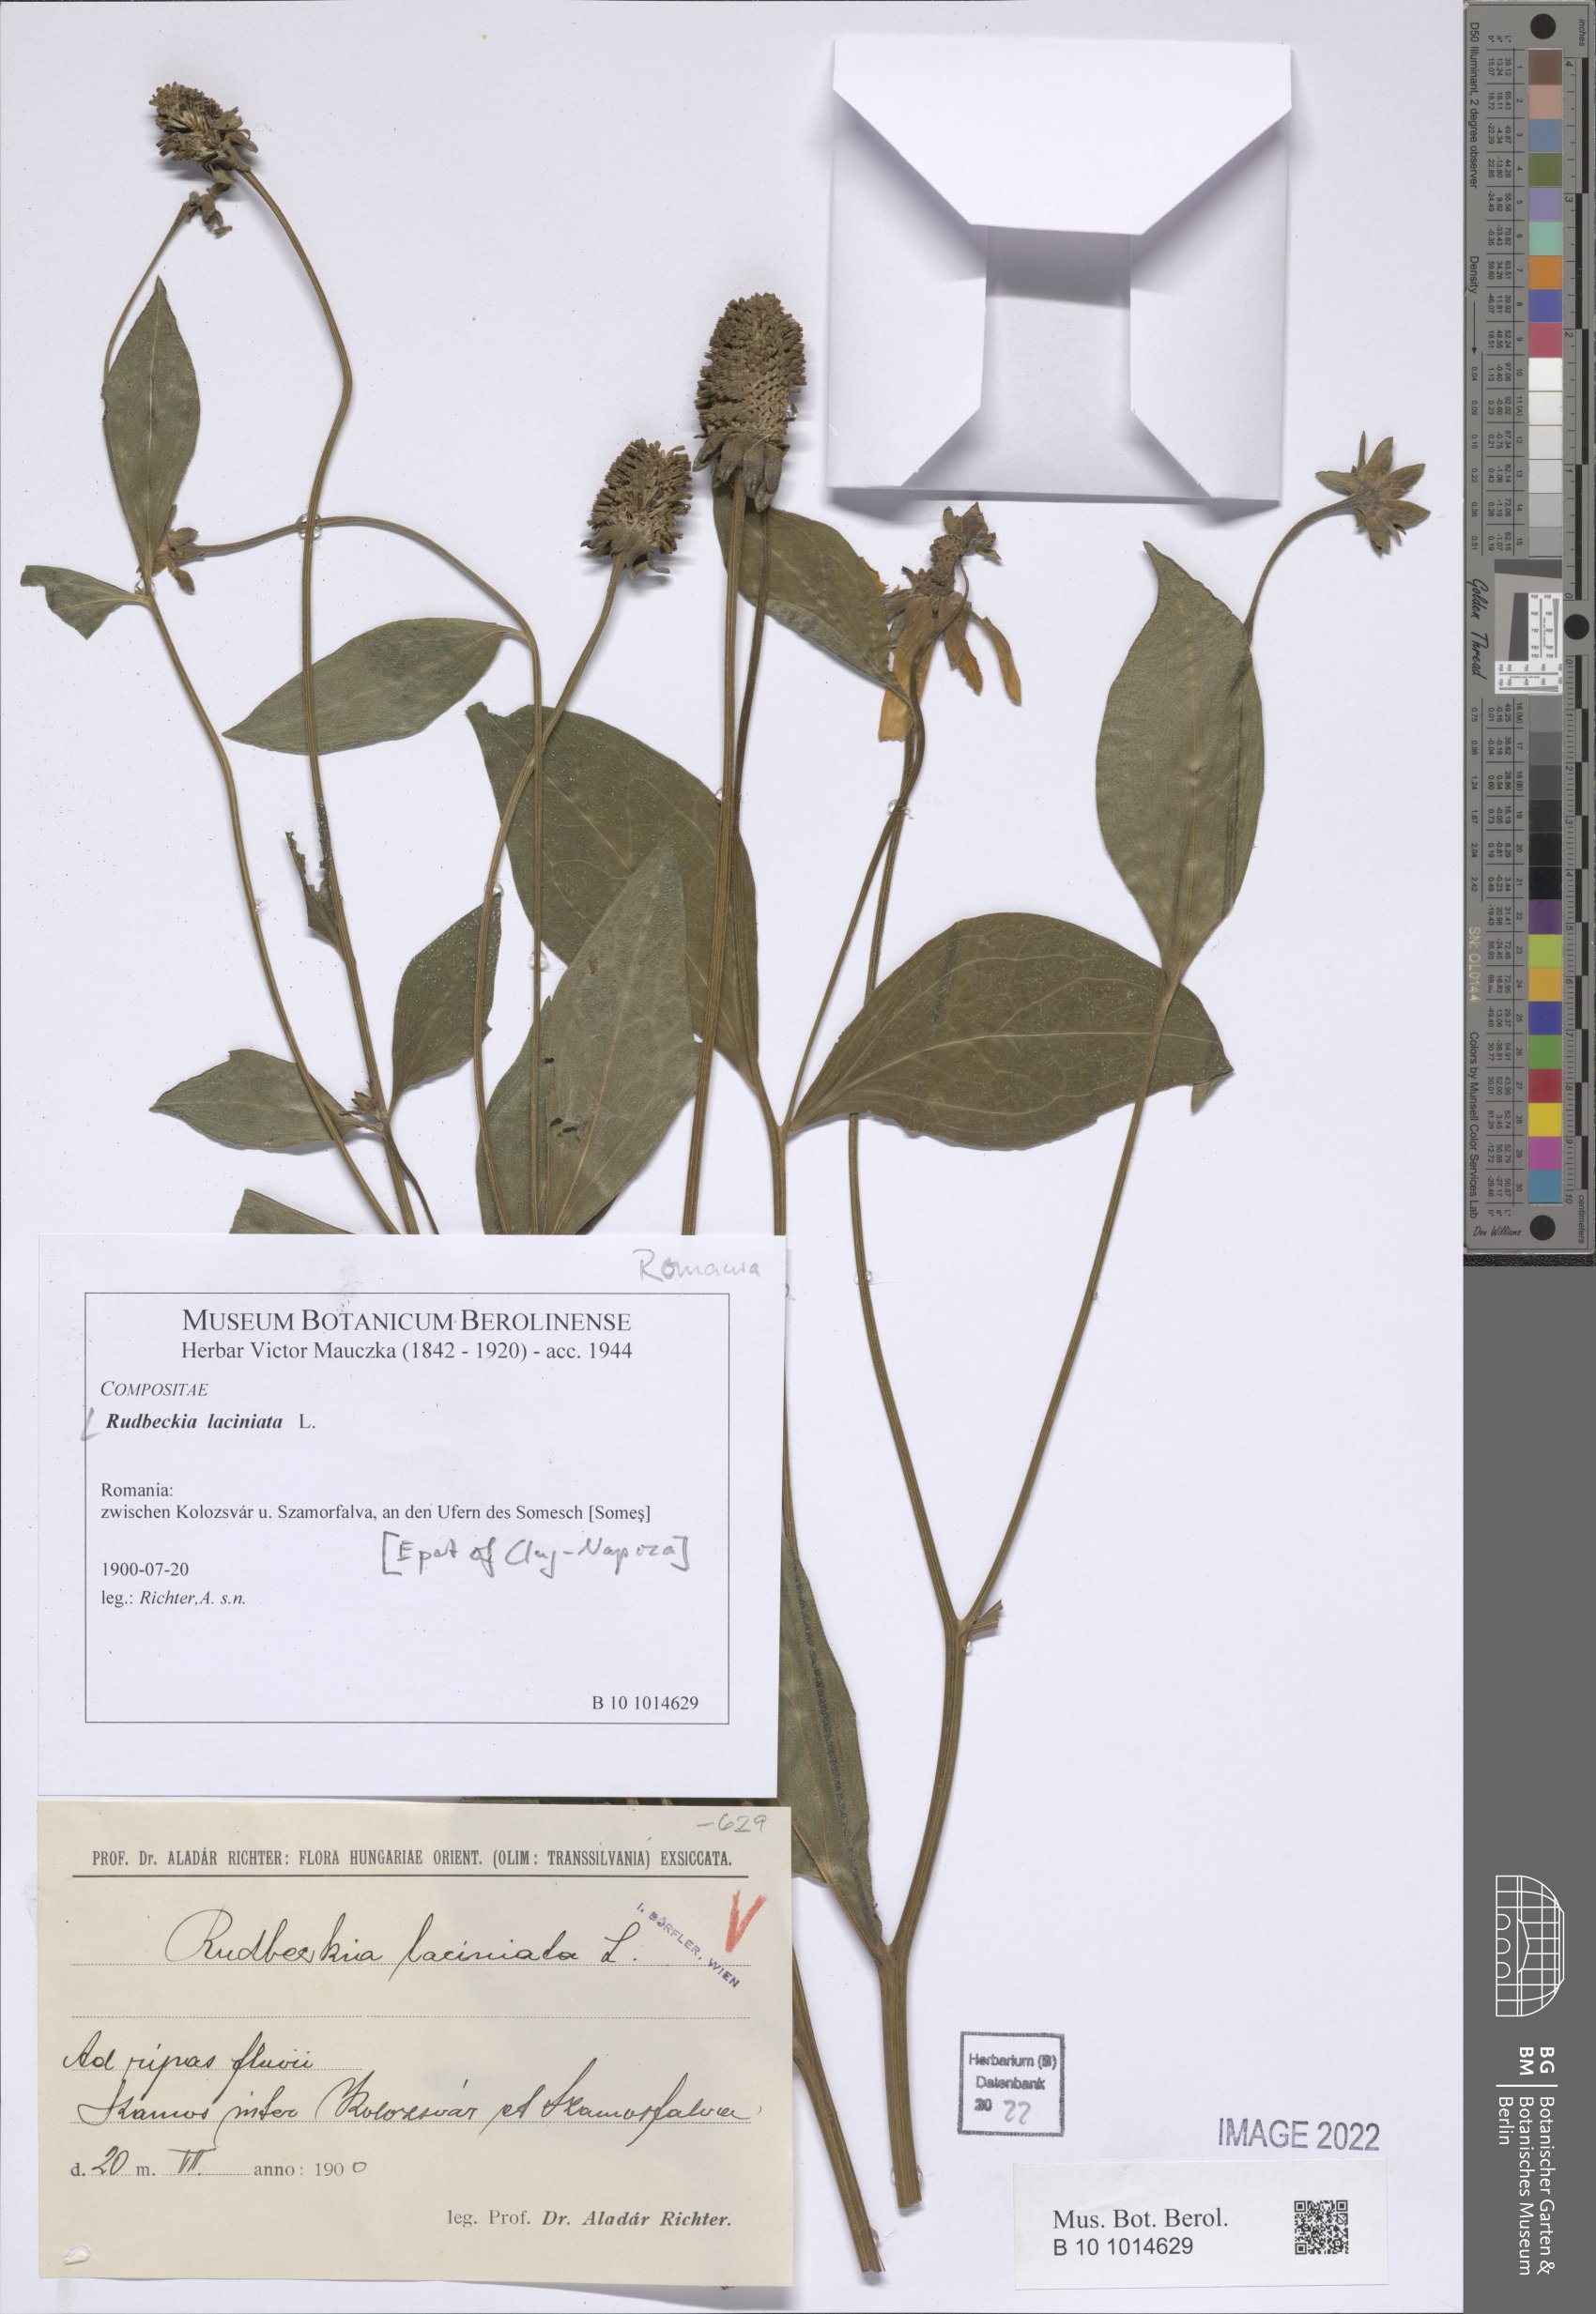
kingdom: Plantae
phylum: Tracheophyta
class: Magnoliopsida
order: Asterales
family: Asteraceae
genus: Rudbeckia
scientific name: Rudbeckia laciniata
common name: Coneflower
